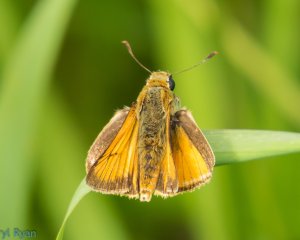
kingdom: Animalia
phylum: Arthropoda
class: Insecta
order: Lepidoptera
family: Hesperiidae
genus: Atrytone
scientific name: Atrytone delaware
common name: Delaware Skipper
